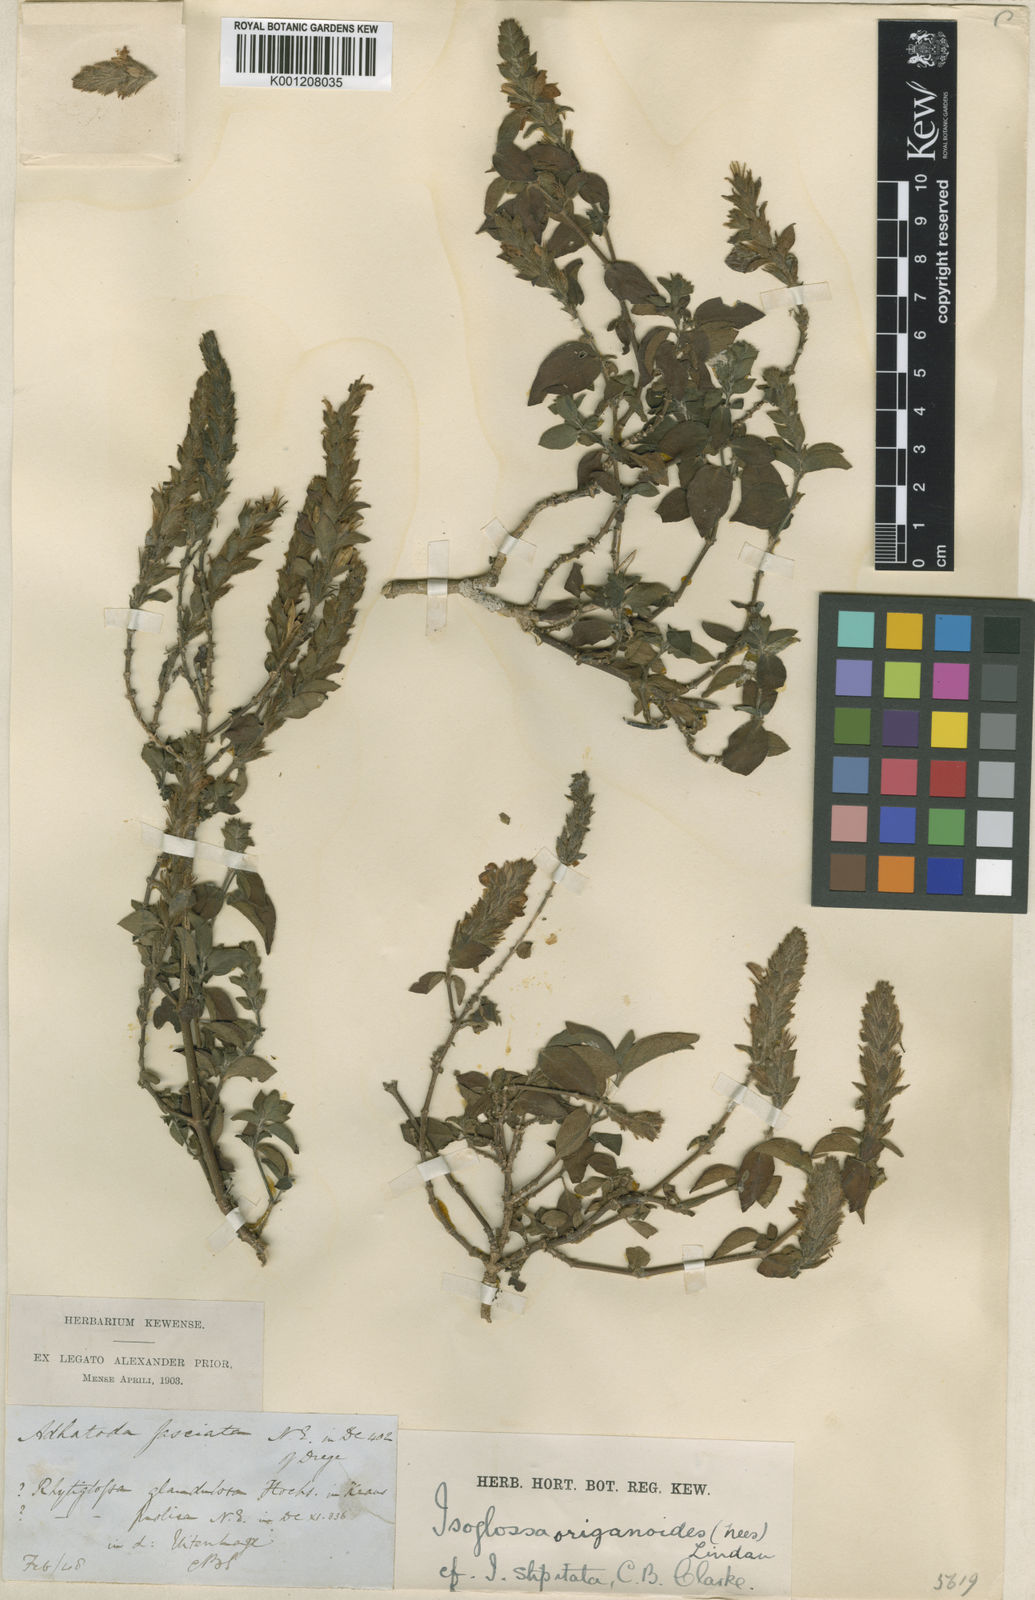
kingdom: Plantae
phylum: Tracheophyta
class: Magnoliopsida
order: Lamiales
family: Acanthaceae
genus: Isoglossa
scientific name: Isoglossa glandulosissima
